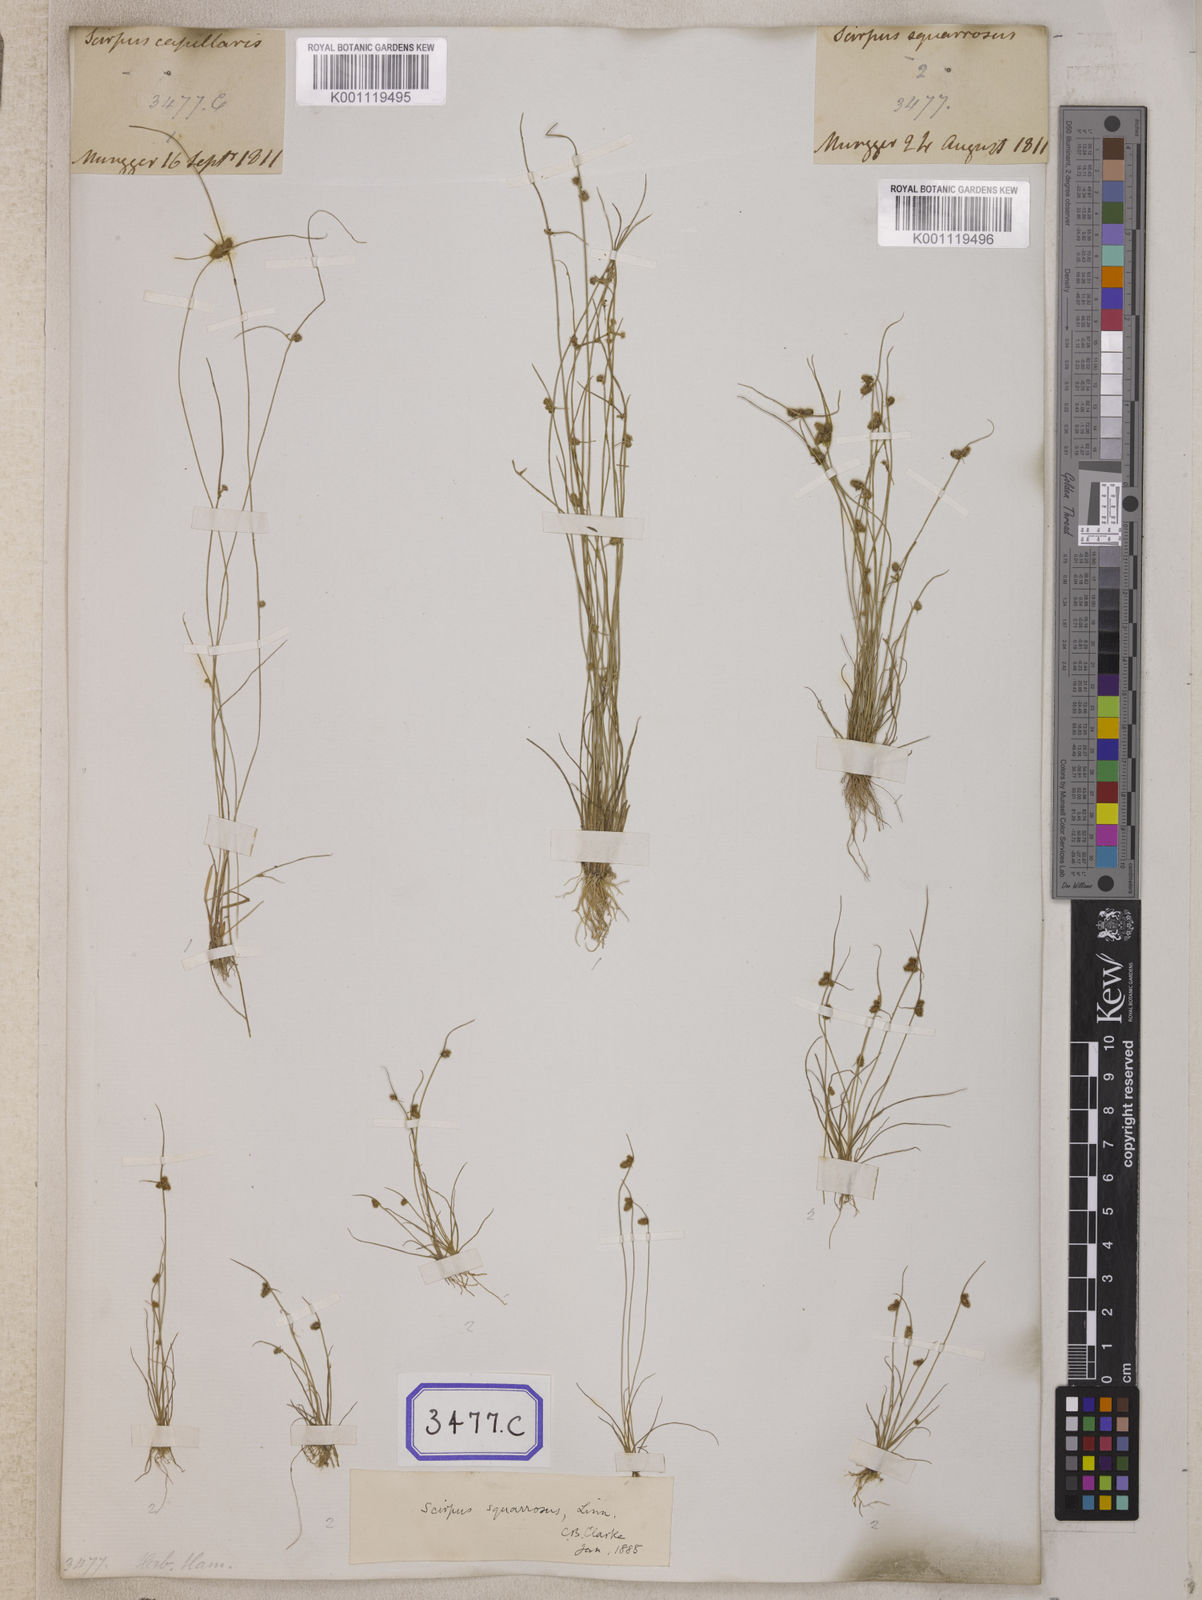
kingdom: Plantae
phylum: Tracheophyta
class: Liliopsida
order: Poales
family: Cyperaceae
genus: Isolepis
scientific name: Isolepis
